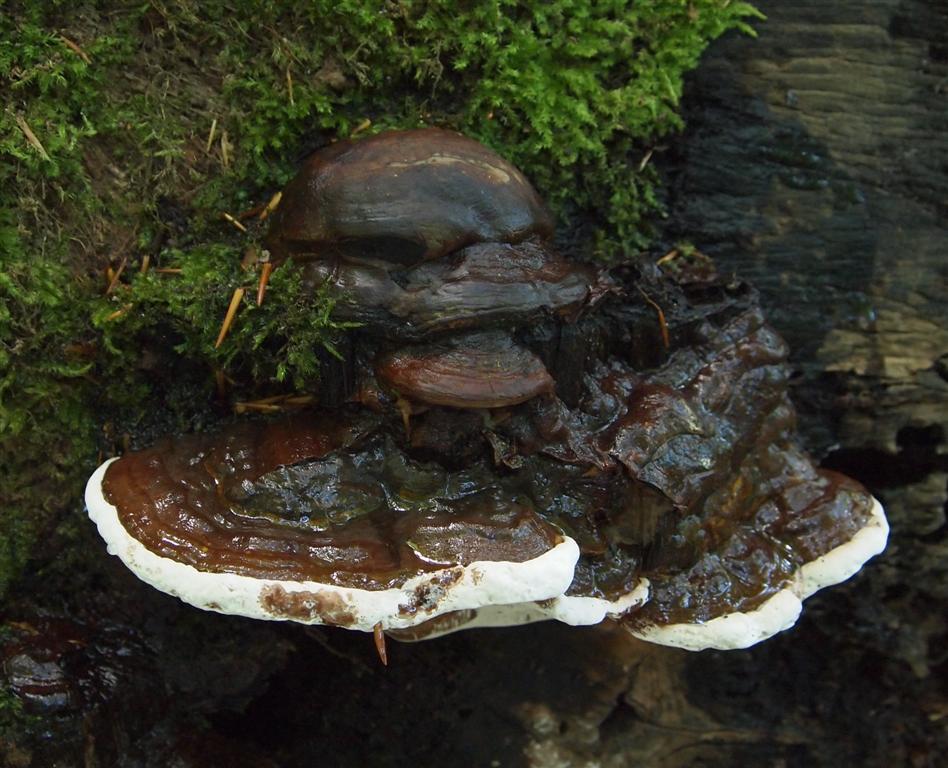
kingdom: Fungi
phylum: Basidiomycota
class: Agaricomycetes
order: Polyporales
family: Polyporaceae
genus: Ganoderma
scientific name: Ganoderma pfeifferi
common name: kobberrød lakporesvamp
